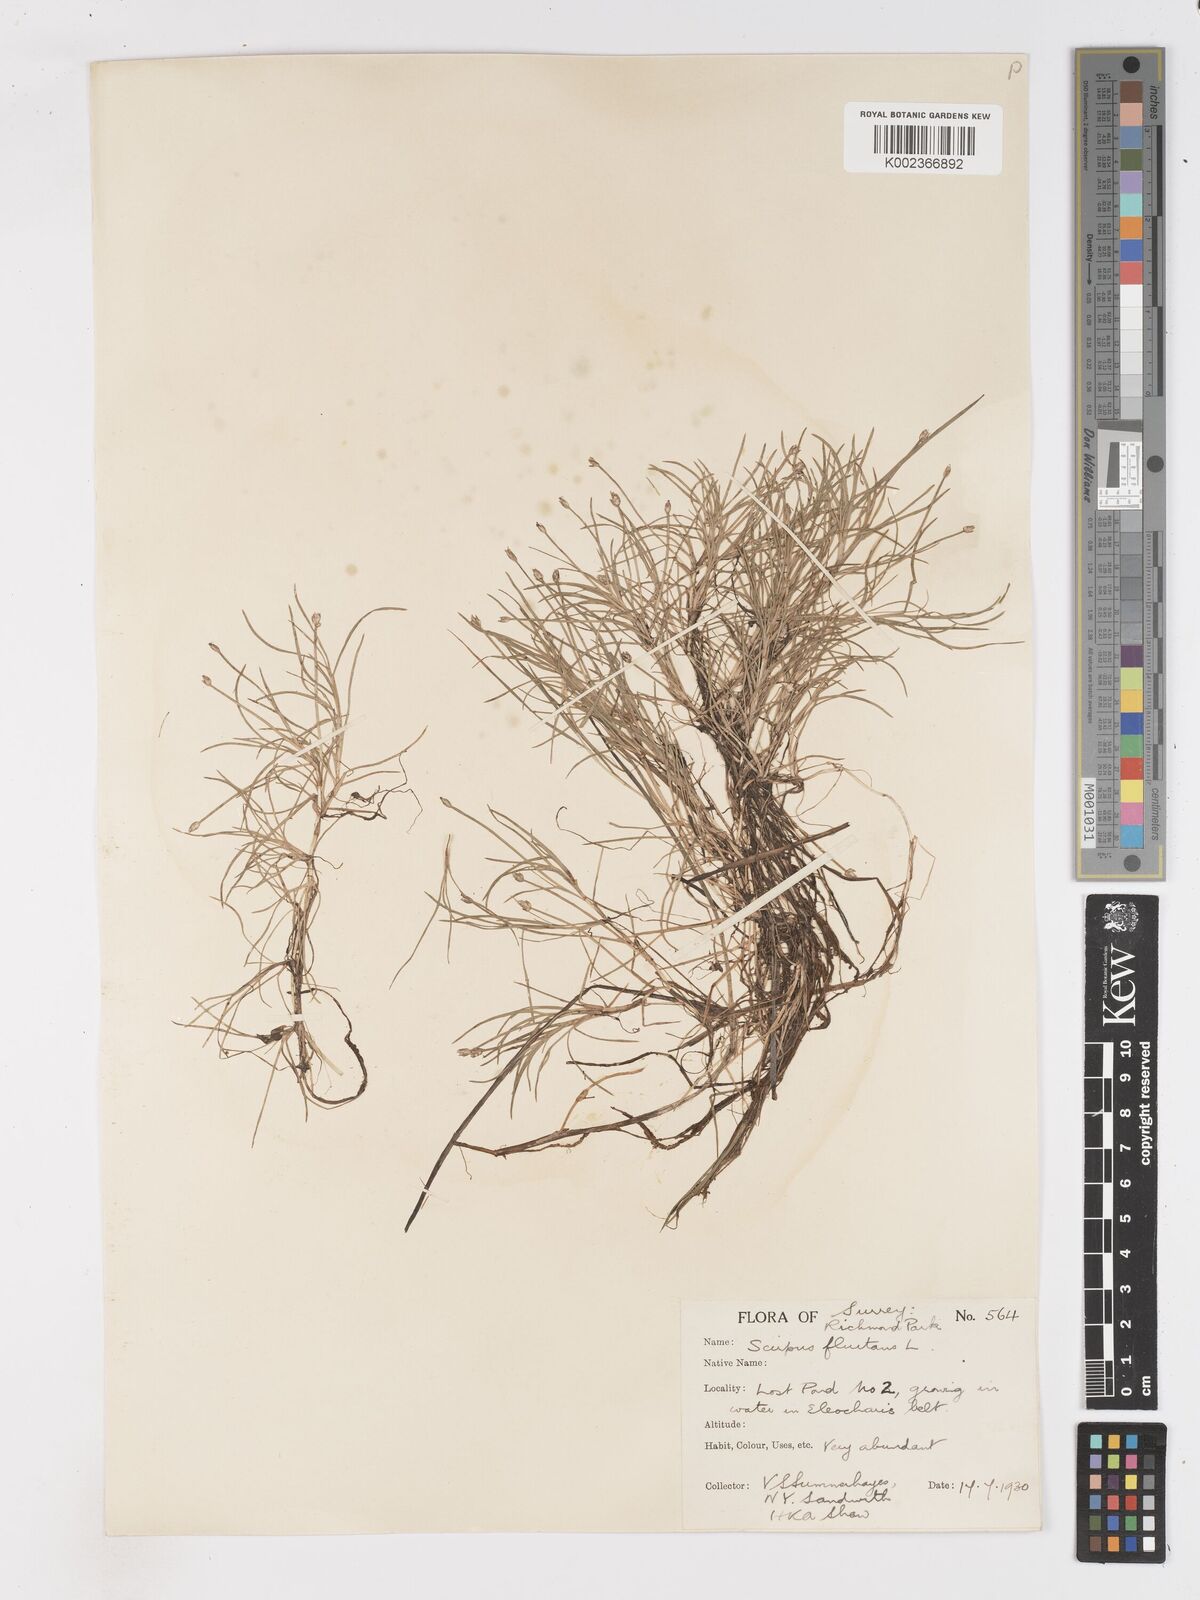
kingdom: Plantae
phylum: Tracheophyta
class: Liliopsida
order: Poales
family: Cyperaceae
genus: Isolepis
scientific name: Isolepis fluitans
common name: Floating club-rush
